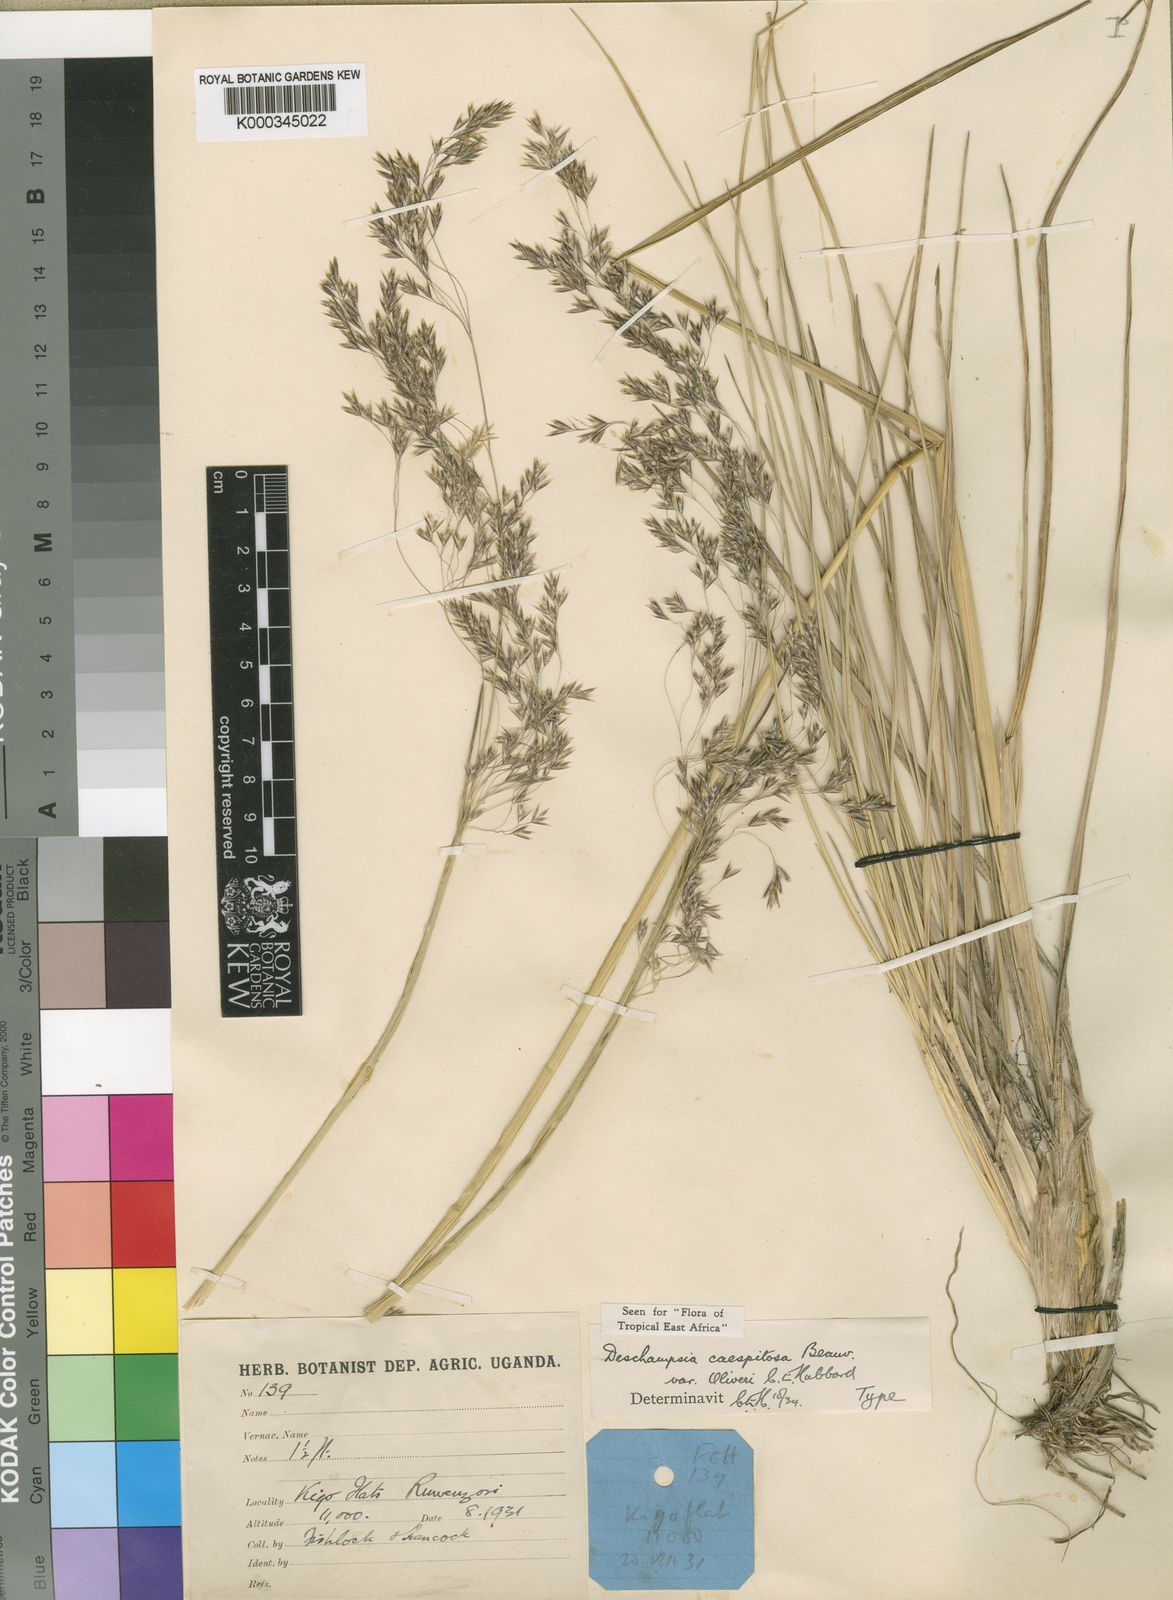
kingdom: Plantae
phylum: Tracheophyta
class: Liliopsida
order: Poales
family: Poaceae
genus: Deschampsia
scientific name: Deschampsia
